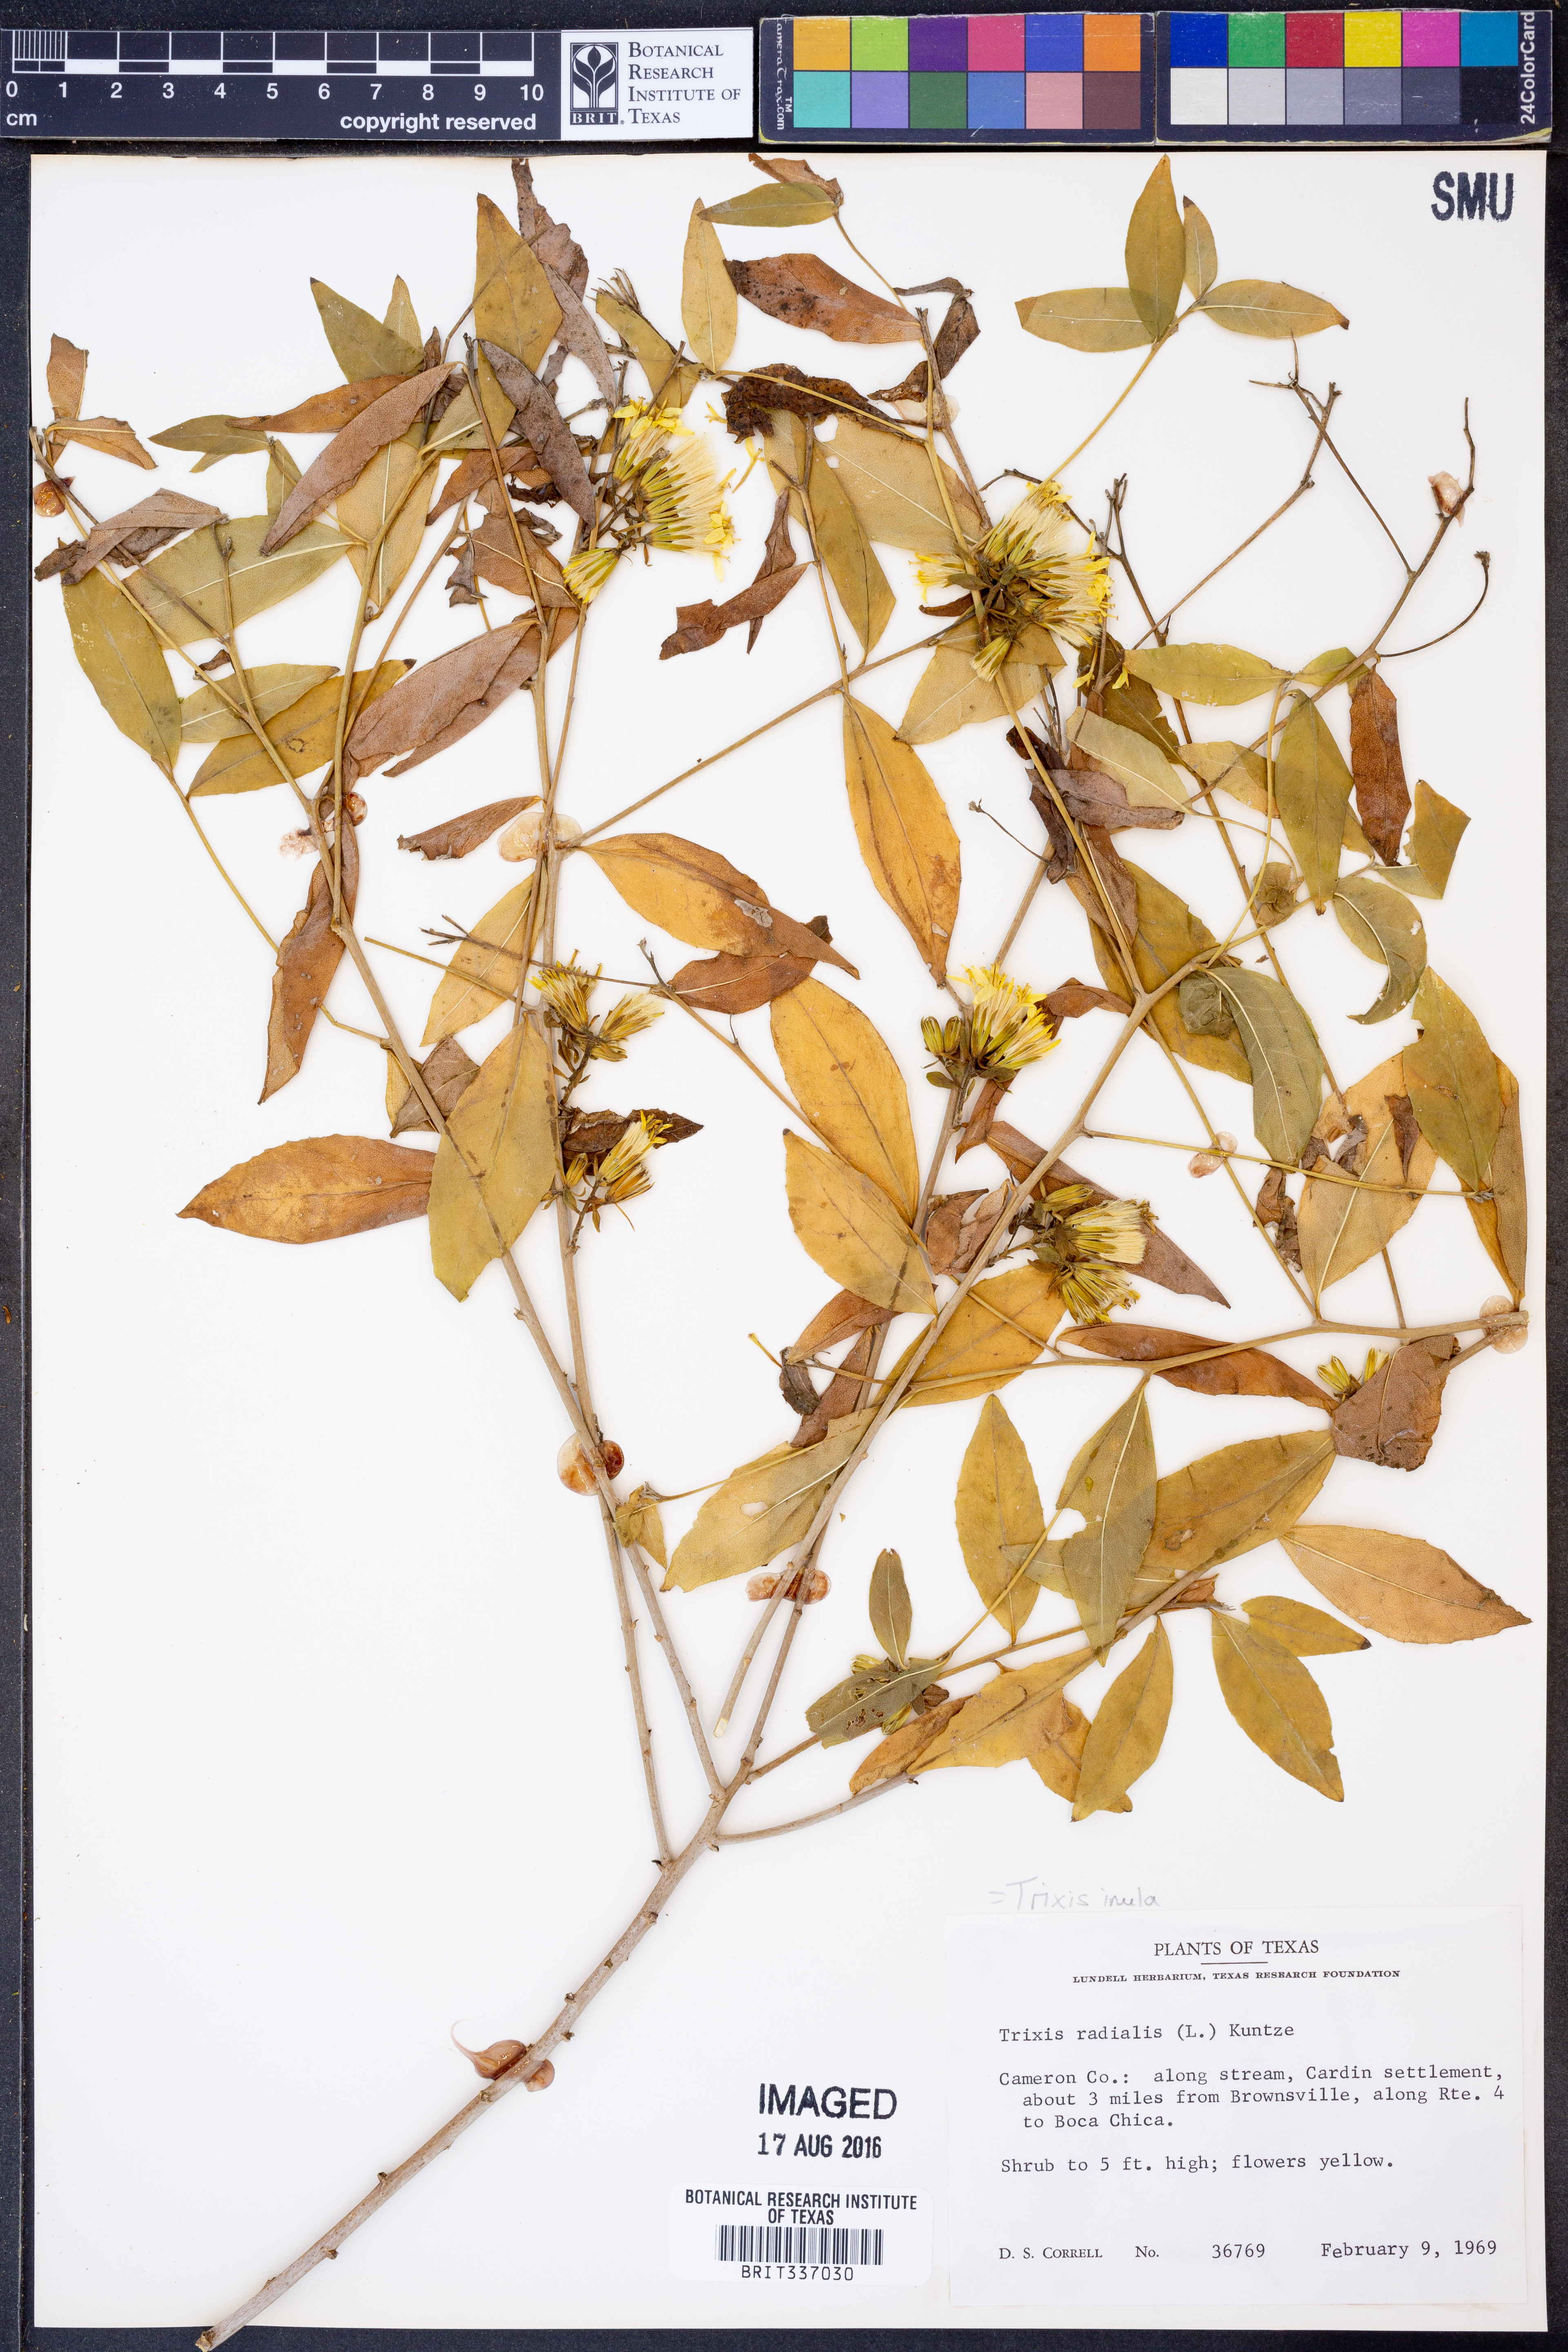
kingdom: Plantae
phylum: Tracheophyta
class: Magnoliopsida
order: Asterales
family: Asteraceae
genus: Trixis
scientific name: Trixis inula
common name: Tropical threefold
